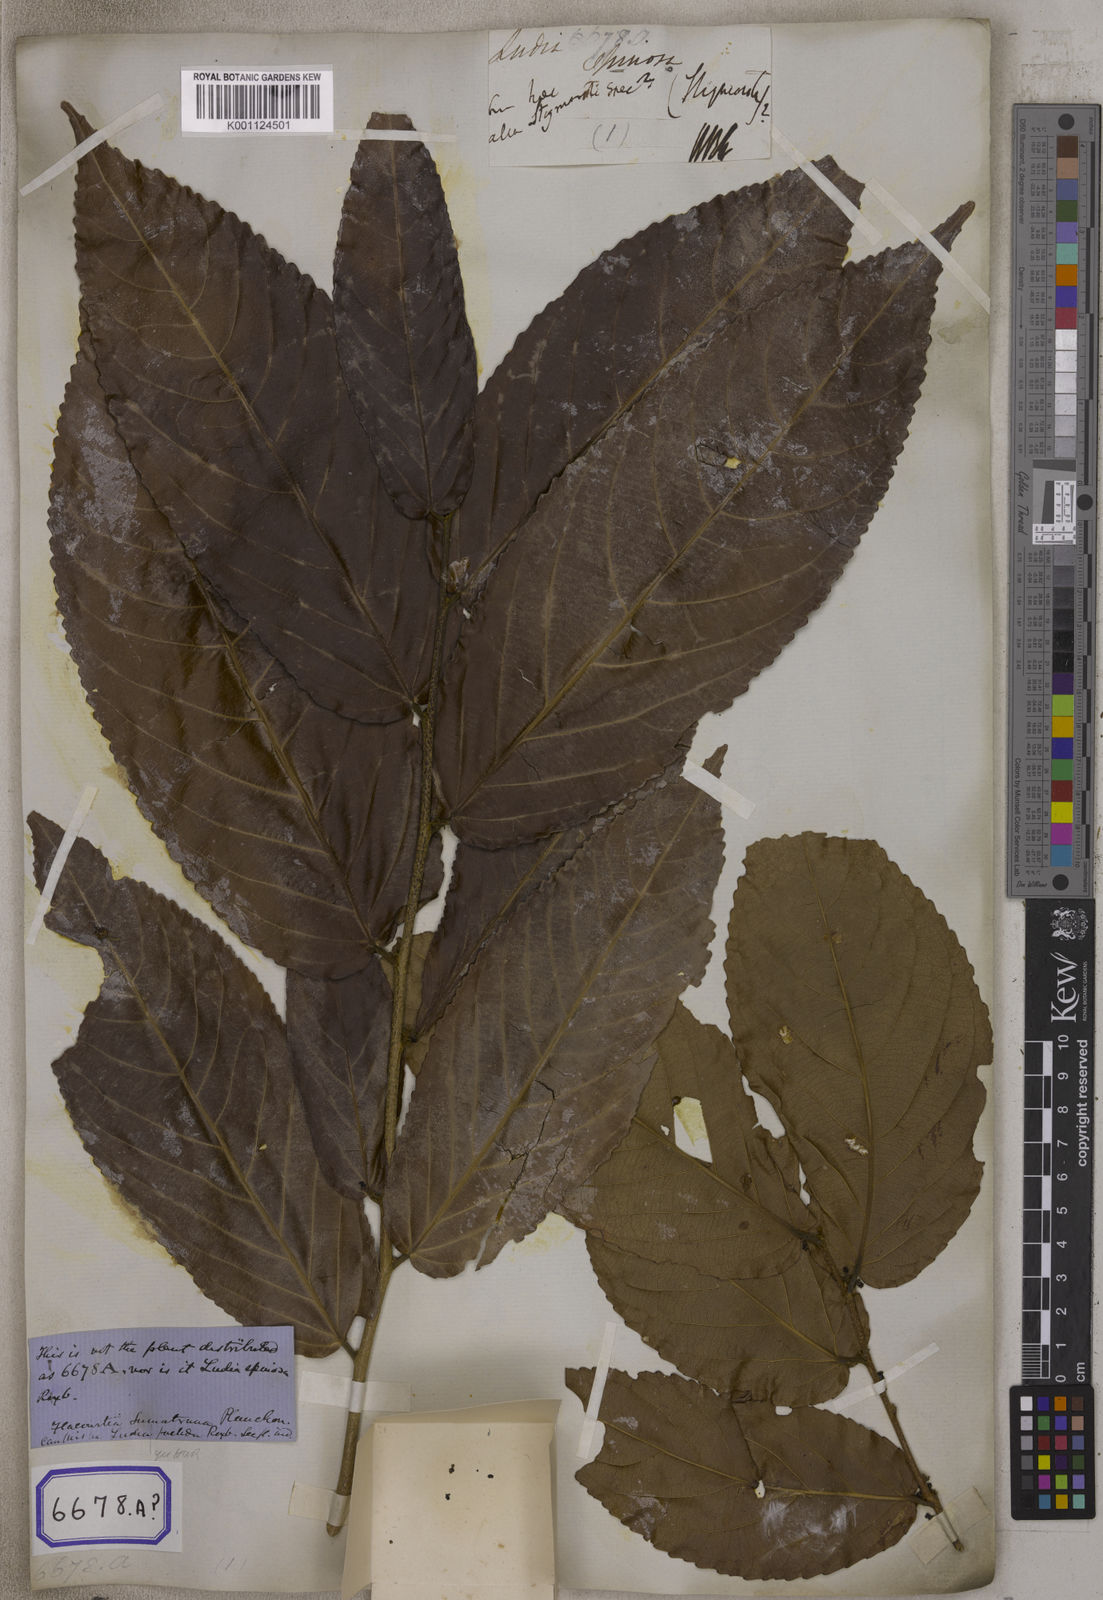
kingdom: Plantae
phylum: Tracheophyta
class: Magnoliopsida
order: Malpighiales
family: Salicaceae
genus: Flacourtia
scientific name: Flacourtia
